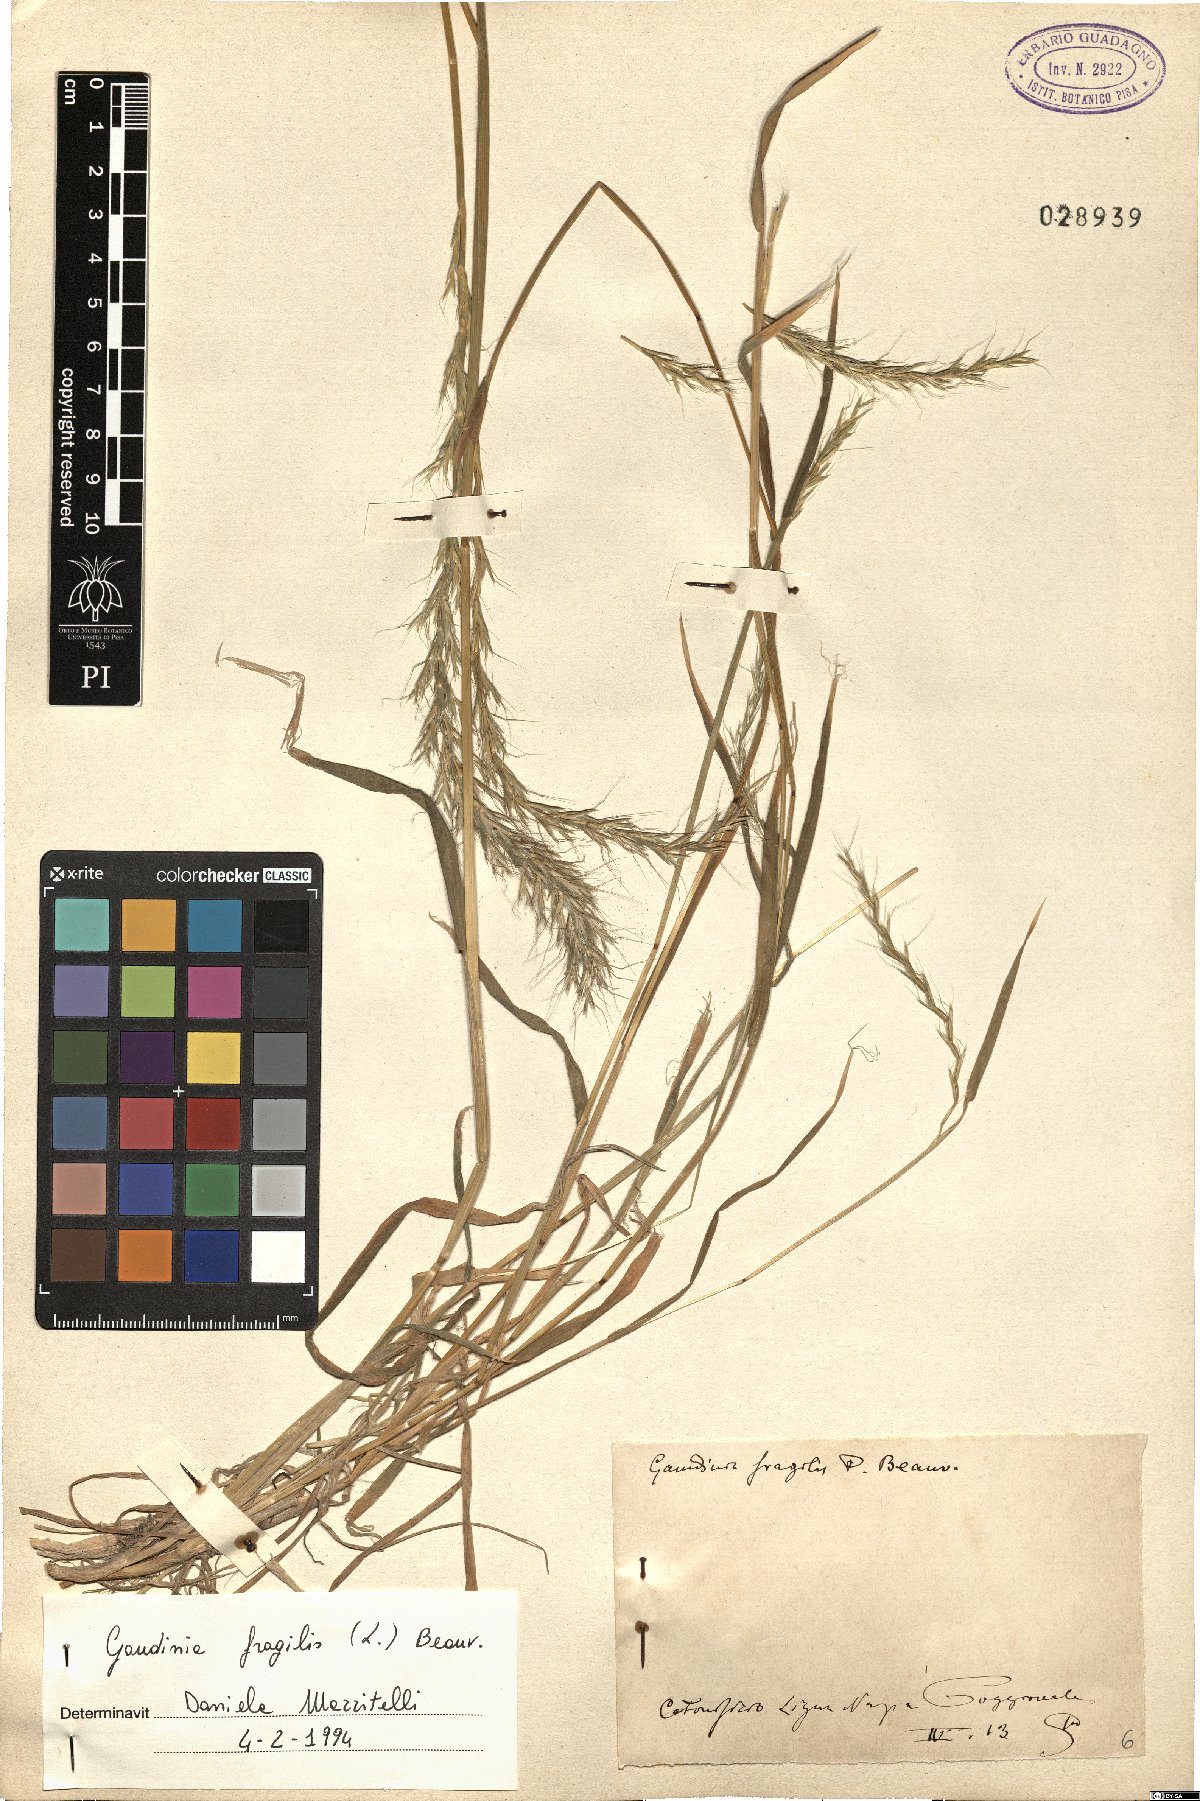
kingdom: Plantae
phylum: Tracheophyta
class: Liliopsida
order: Poales
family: Poaceae
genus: Gaudinia
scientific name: Gaudinia fragilis
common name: French oat-grass
